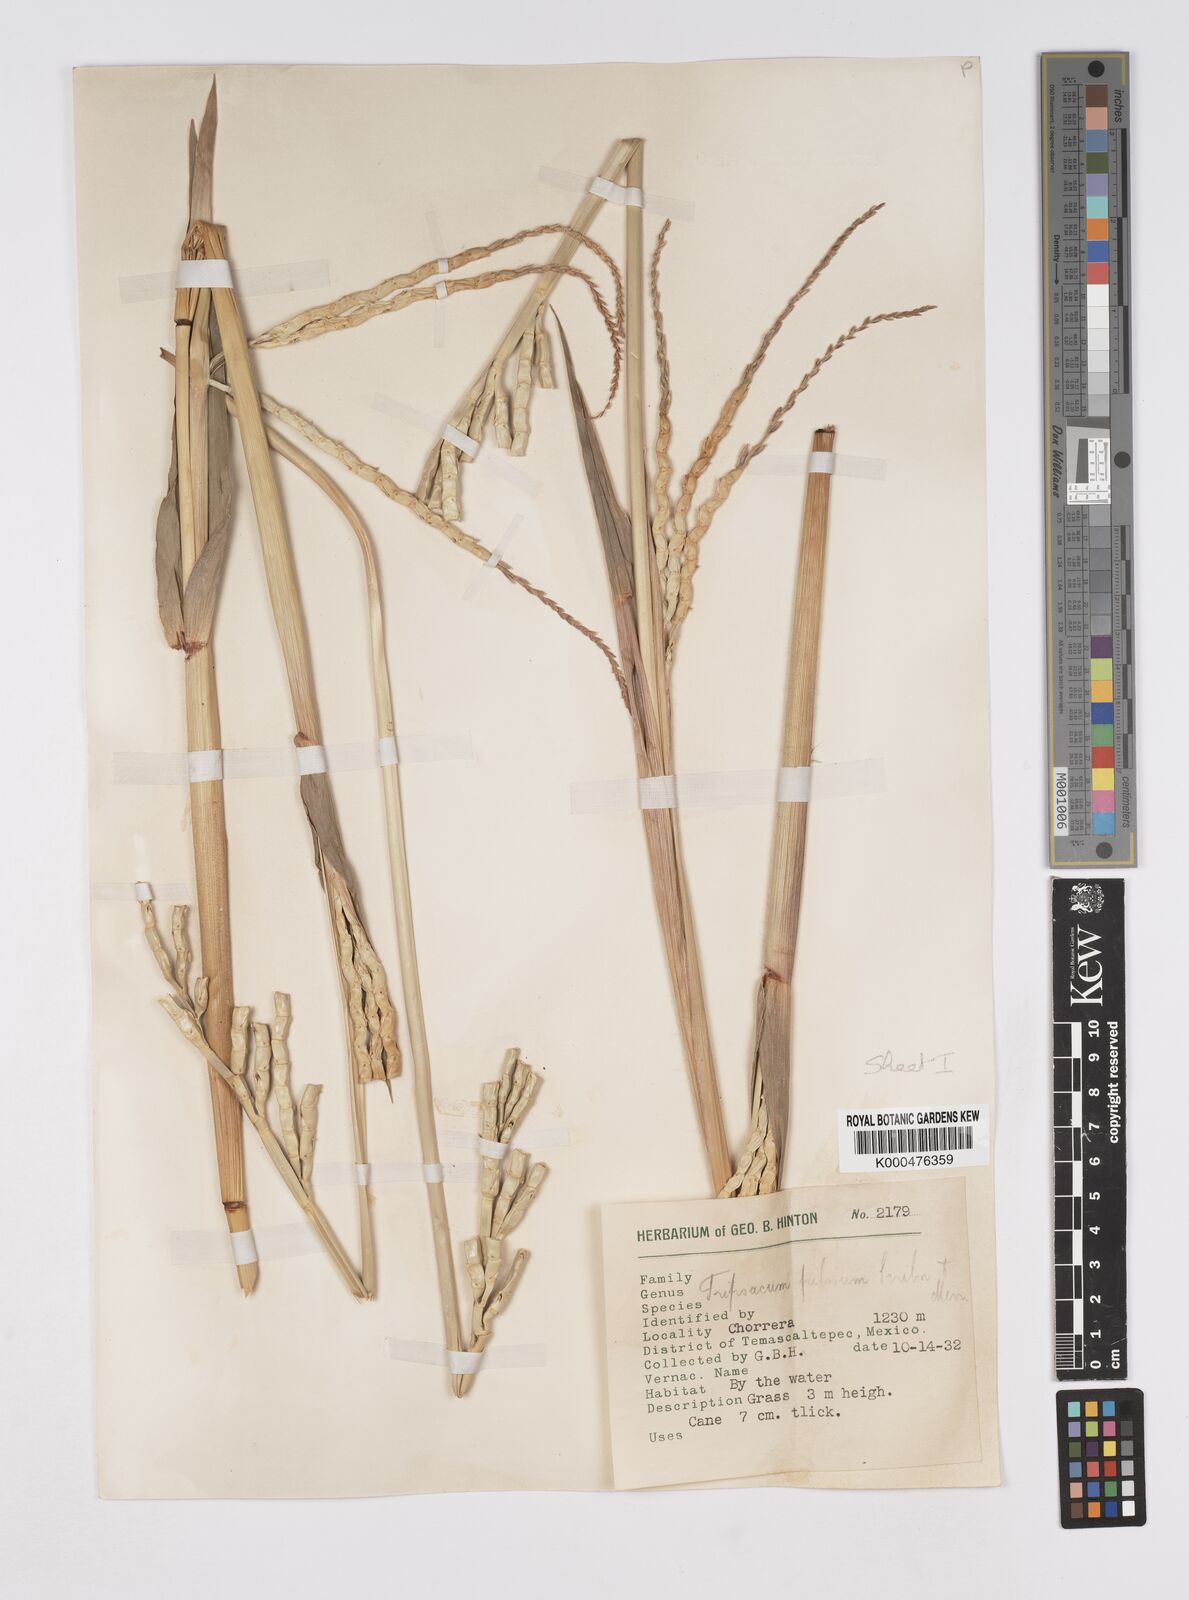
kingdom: Plantae
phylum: Tracheophyta
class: Liliopsida
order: Poales
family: Poaceae
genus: Tripsacum
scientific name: Tripsacum pilosum
